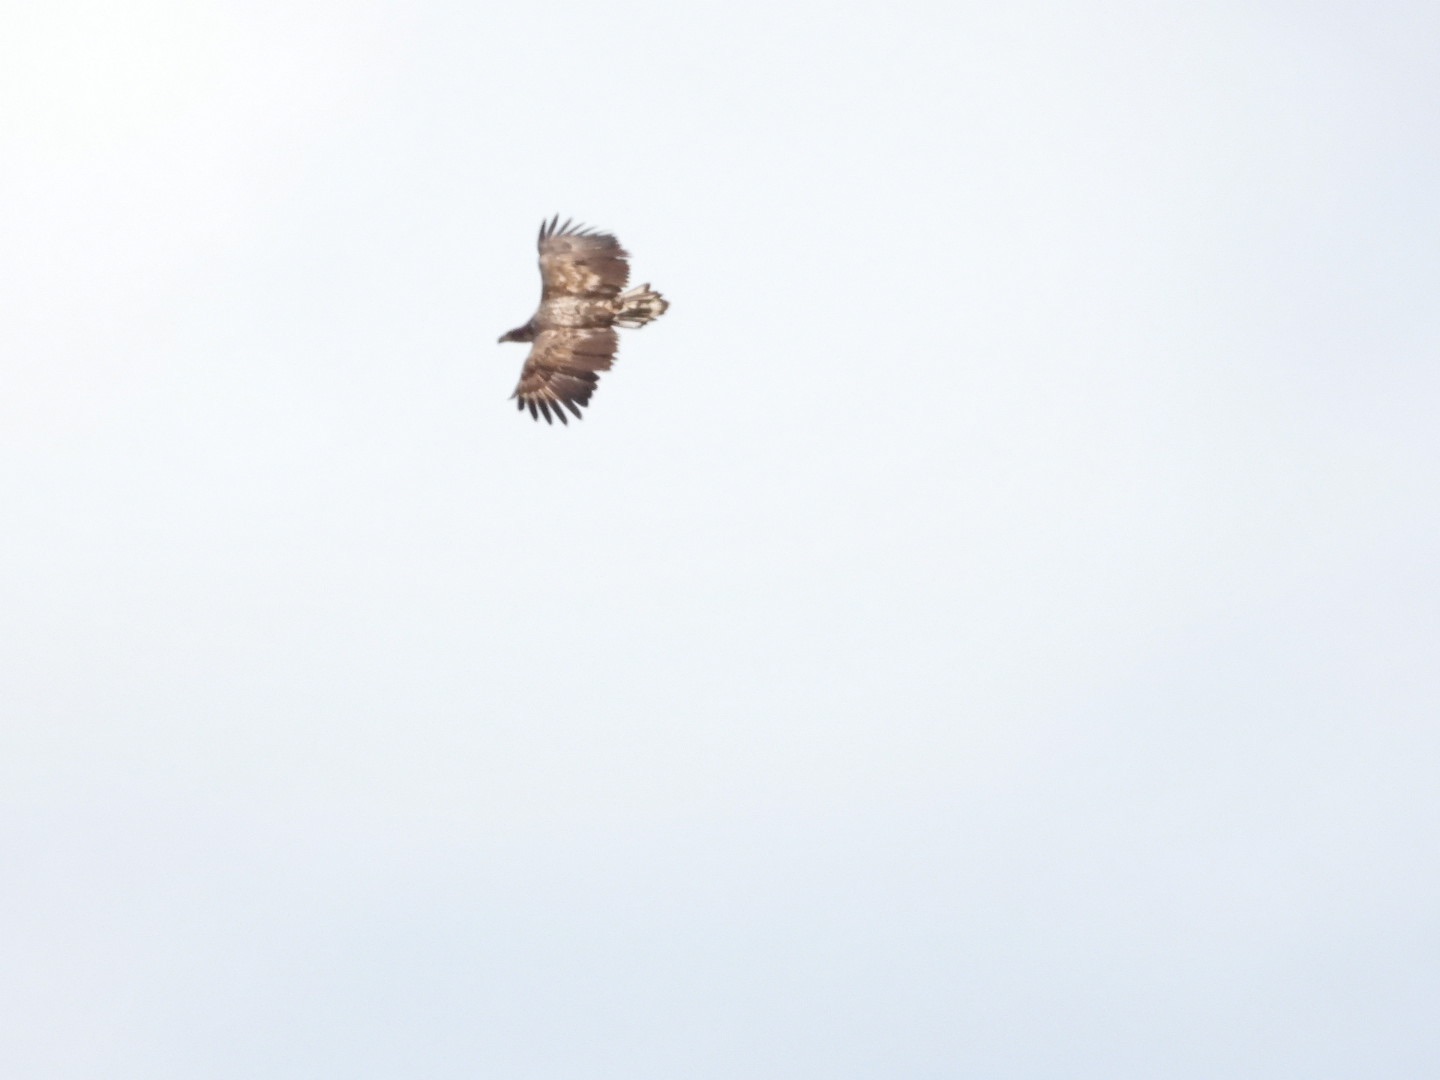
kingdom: Animalia
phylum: Chordata
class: Aves
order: Accipitriformes
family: Accipitridae
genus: Haliaeetus
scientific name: Haliaeetus albicilla
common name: Havørn
